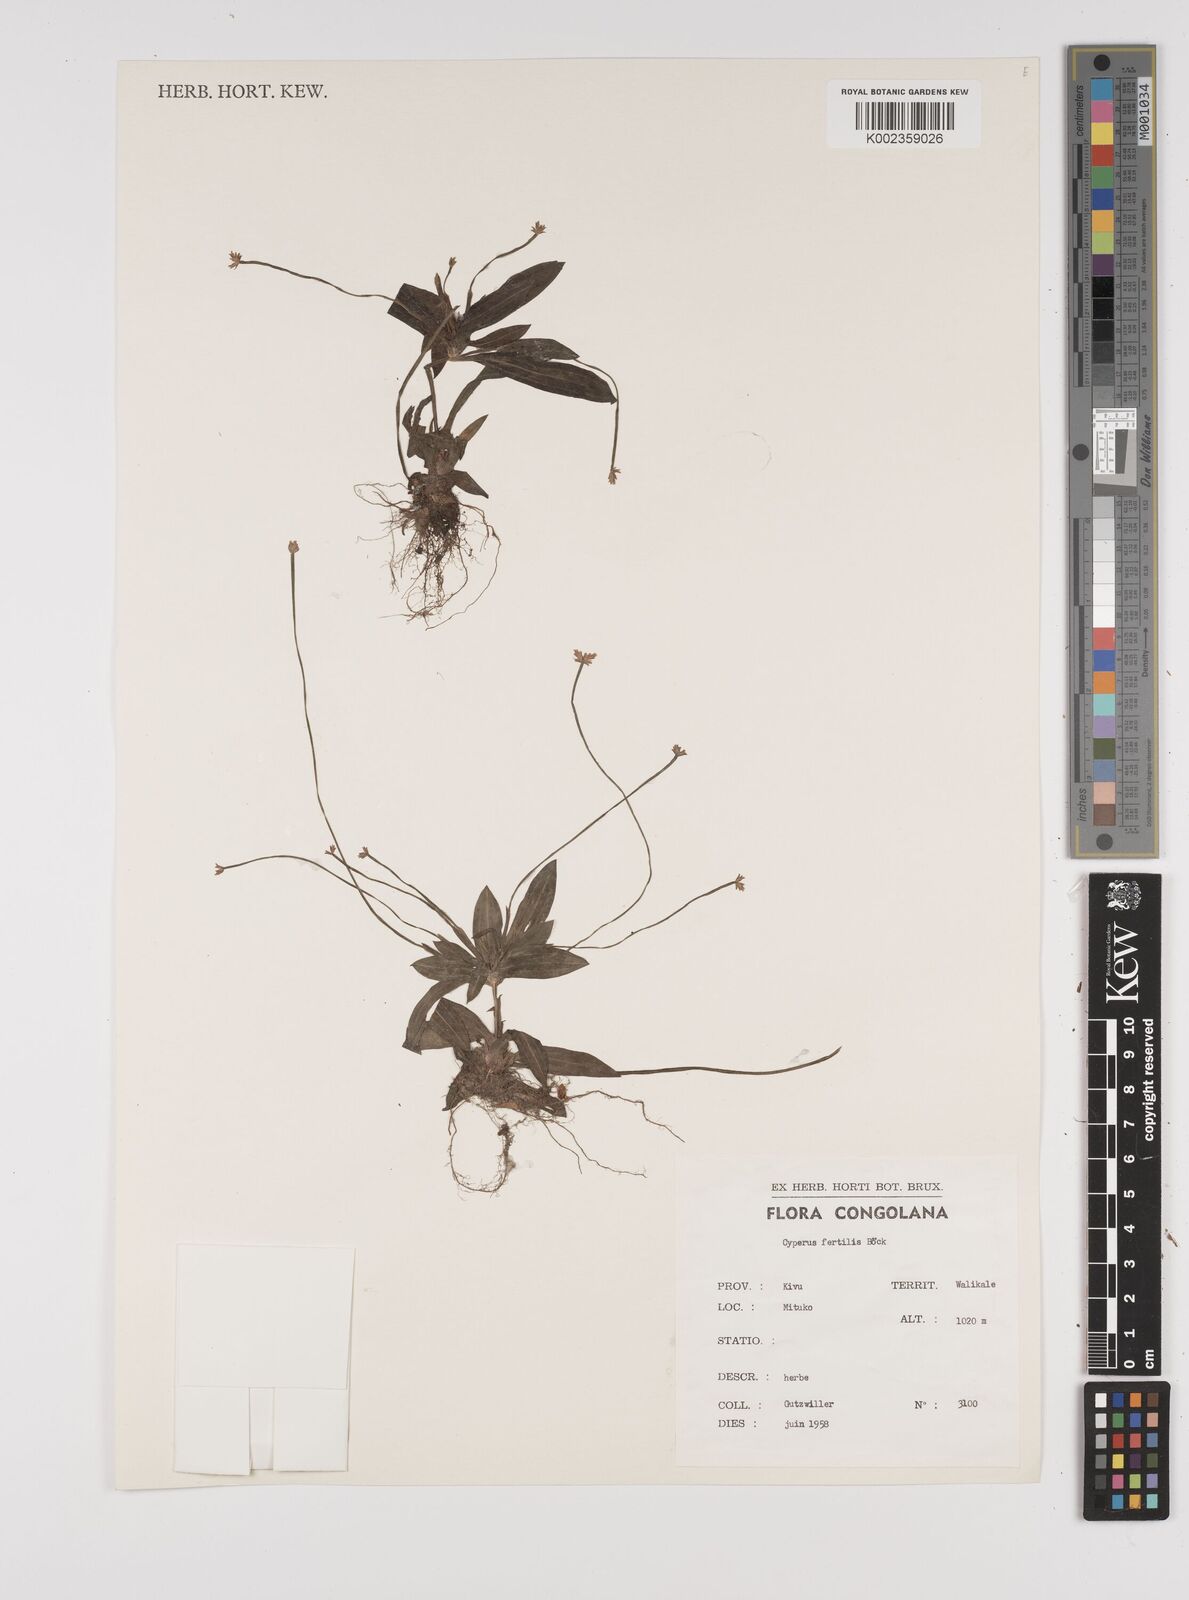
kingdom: Plantae
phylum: Tracheophyta
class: Liliopsida
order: Poales
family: Cyperaceae
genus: Cyperus
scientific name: Cyperus fertilis
